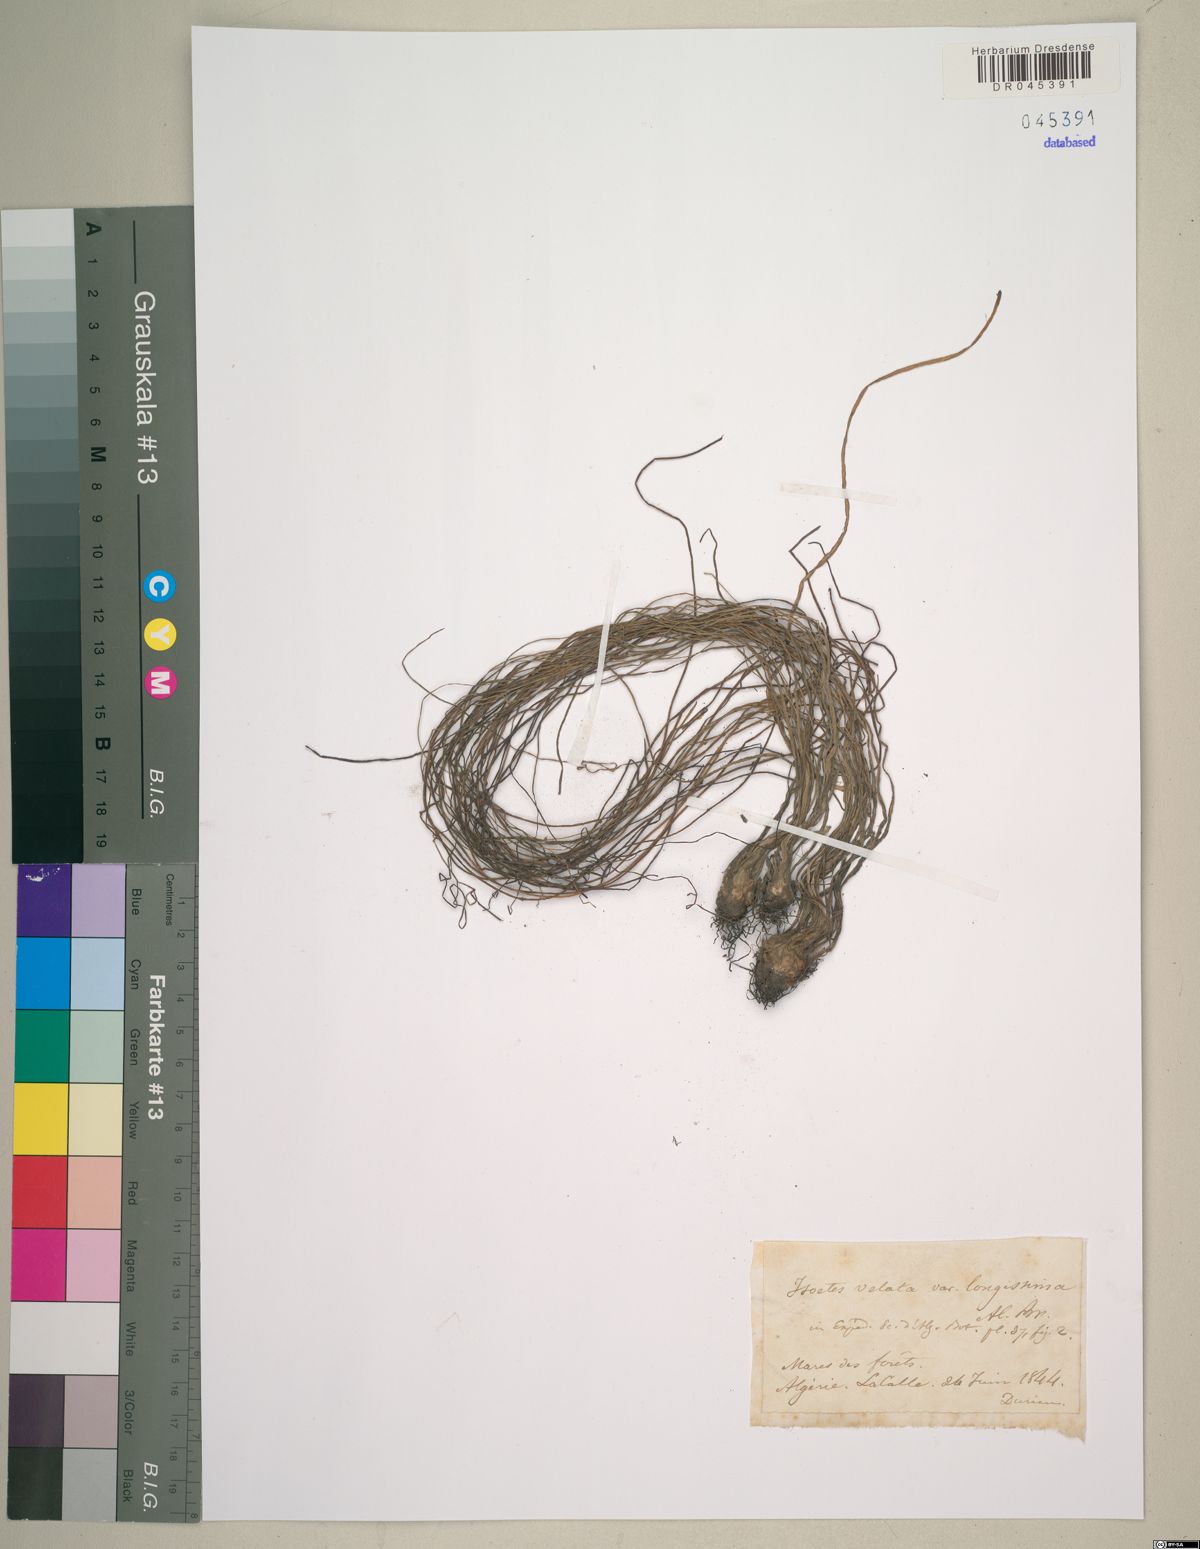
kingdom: Plantae
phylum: Tracheophyta
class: Lycopodiopsida
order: Isoetales
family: Isoetaceae
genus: Isoetes
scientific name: Isoetes longissima
